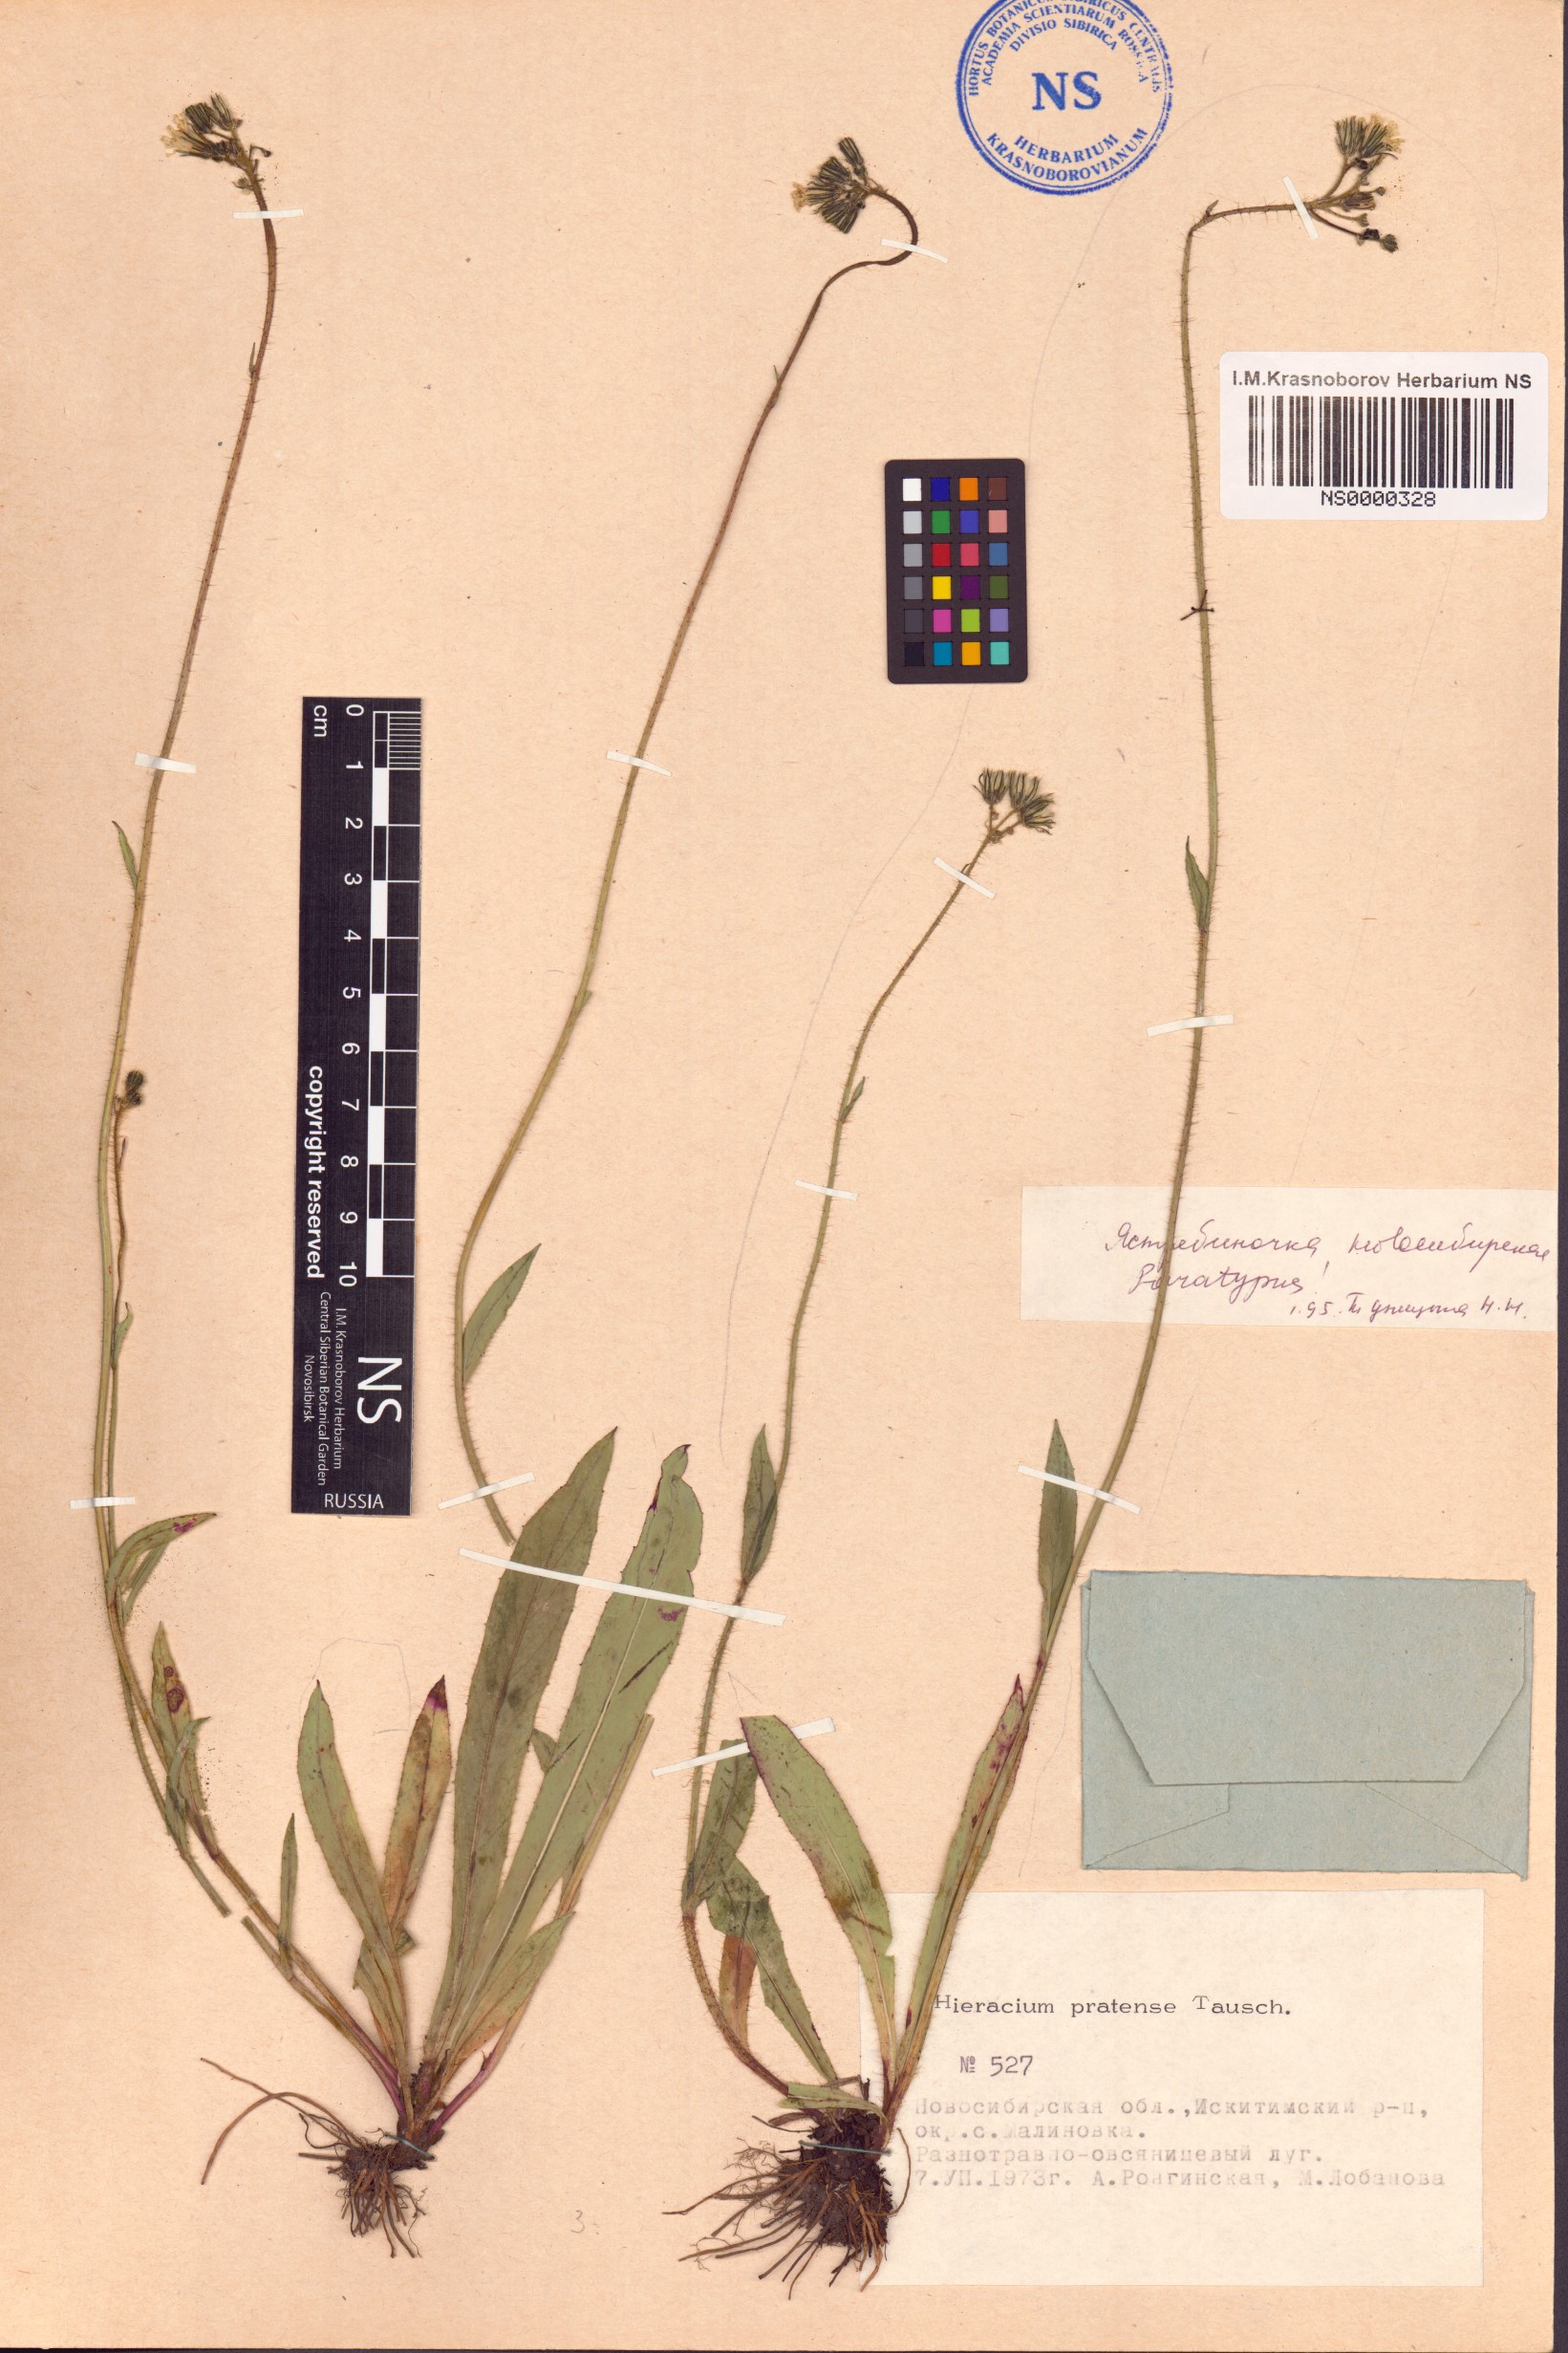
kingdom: Plantae
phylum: Tracheophyta
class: Magnoliopsida
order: Asterales
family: Asteraceae
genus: Pilosella
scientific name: Pilosella novosibirskensis
